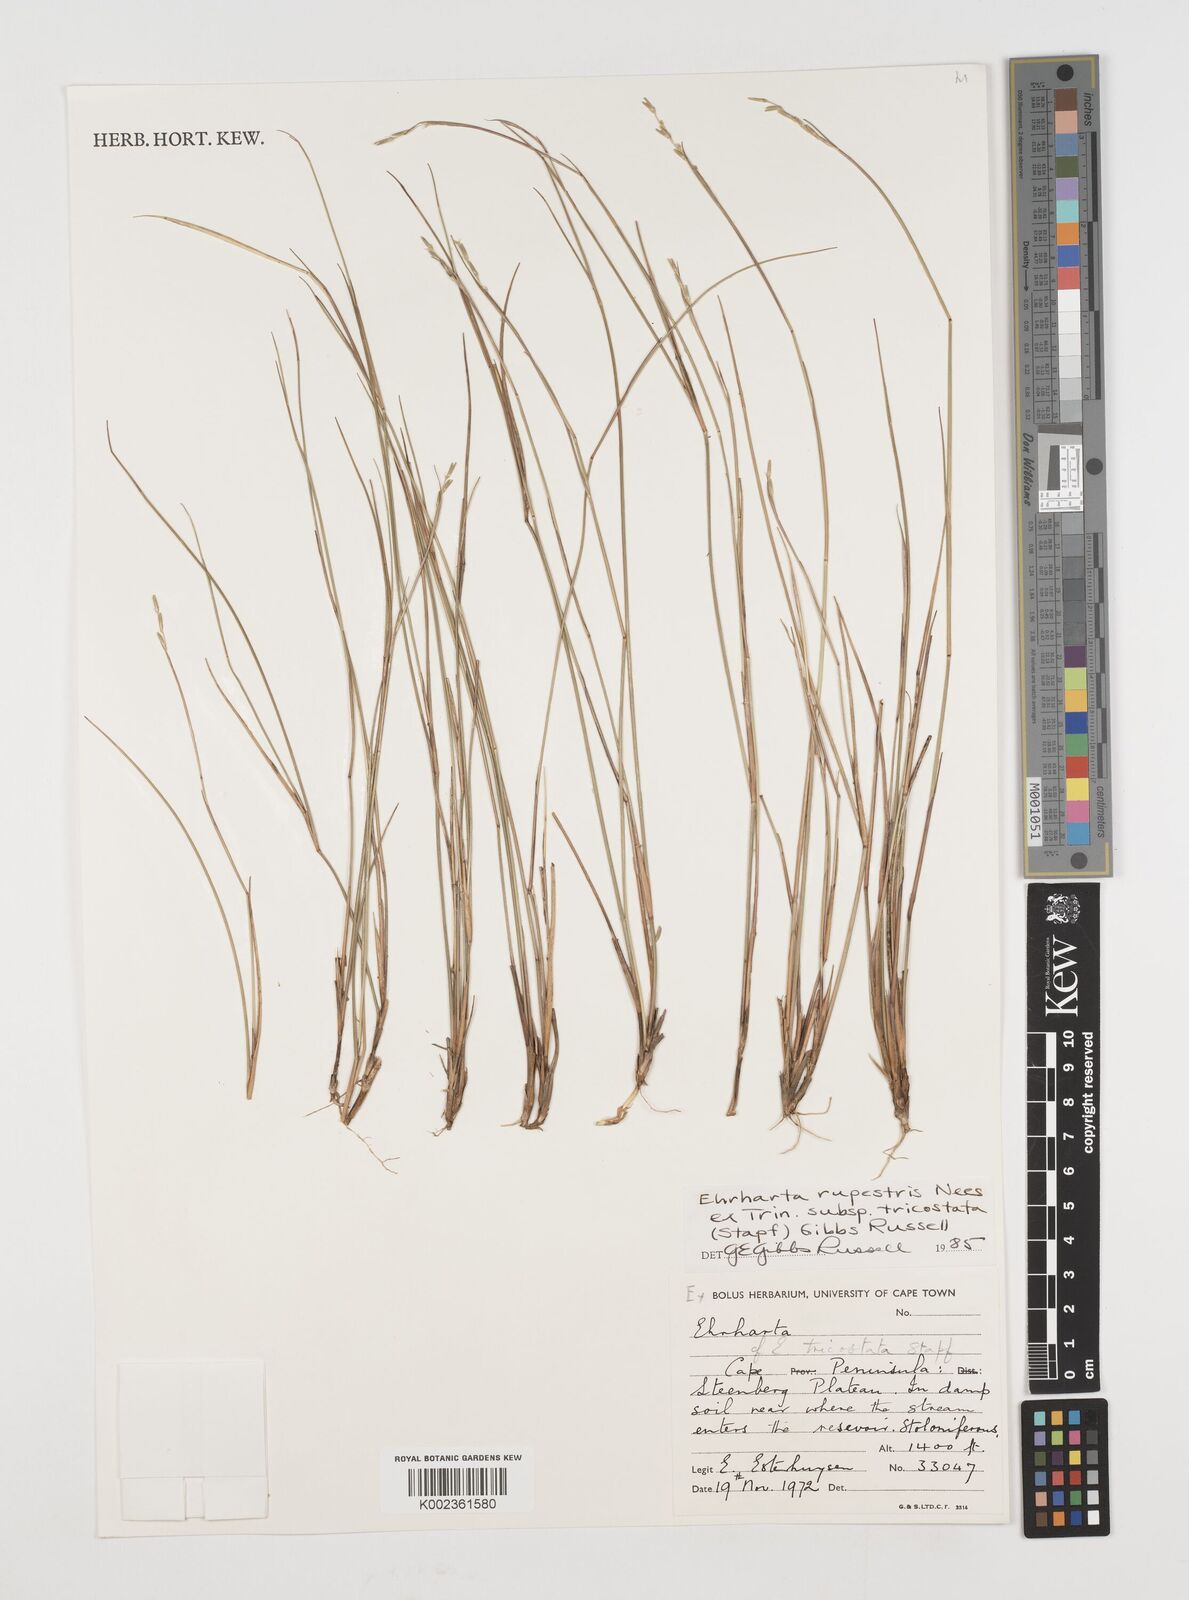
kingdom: Plantae
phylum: Tracheophyta
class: Liliopsida
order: Poales
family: Poaceae
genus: Ehrharta
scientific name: Ehrharta rupestris
